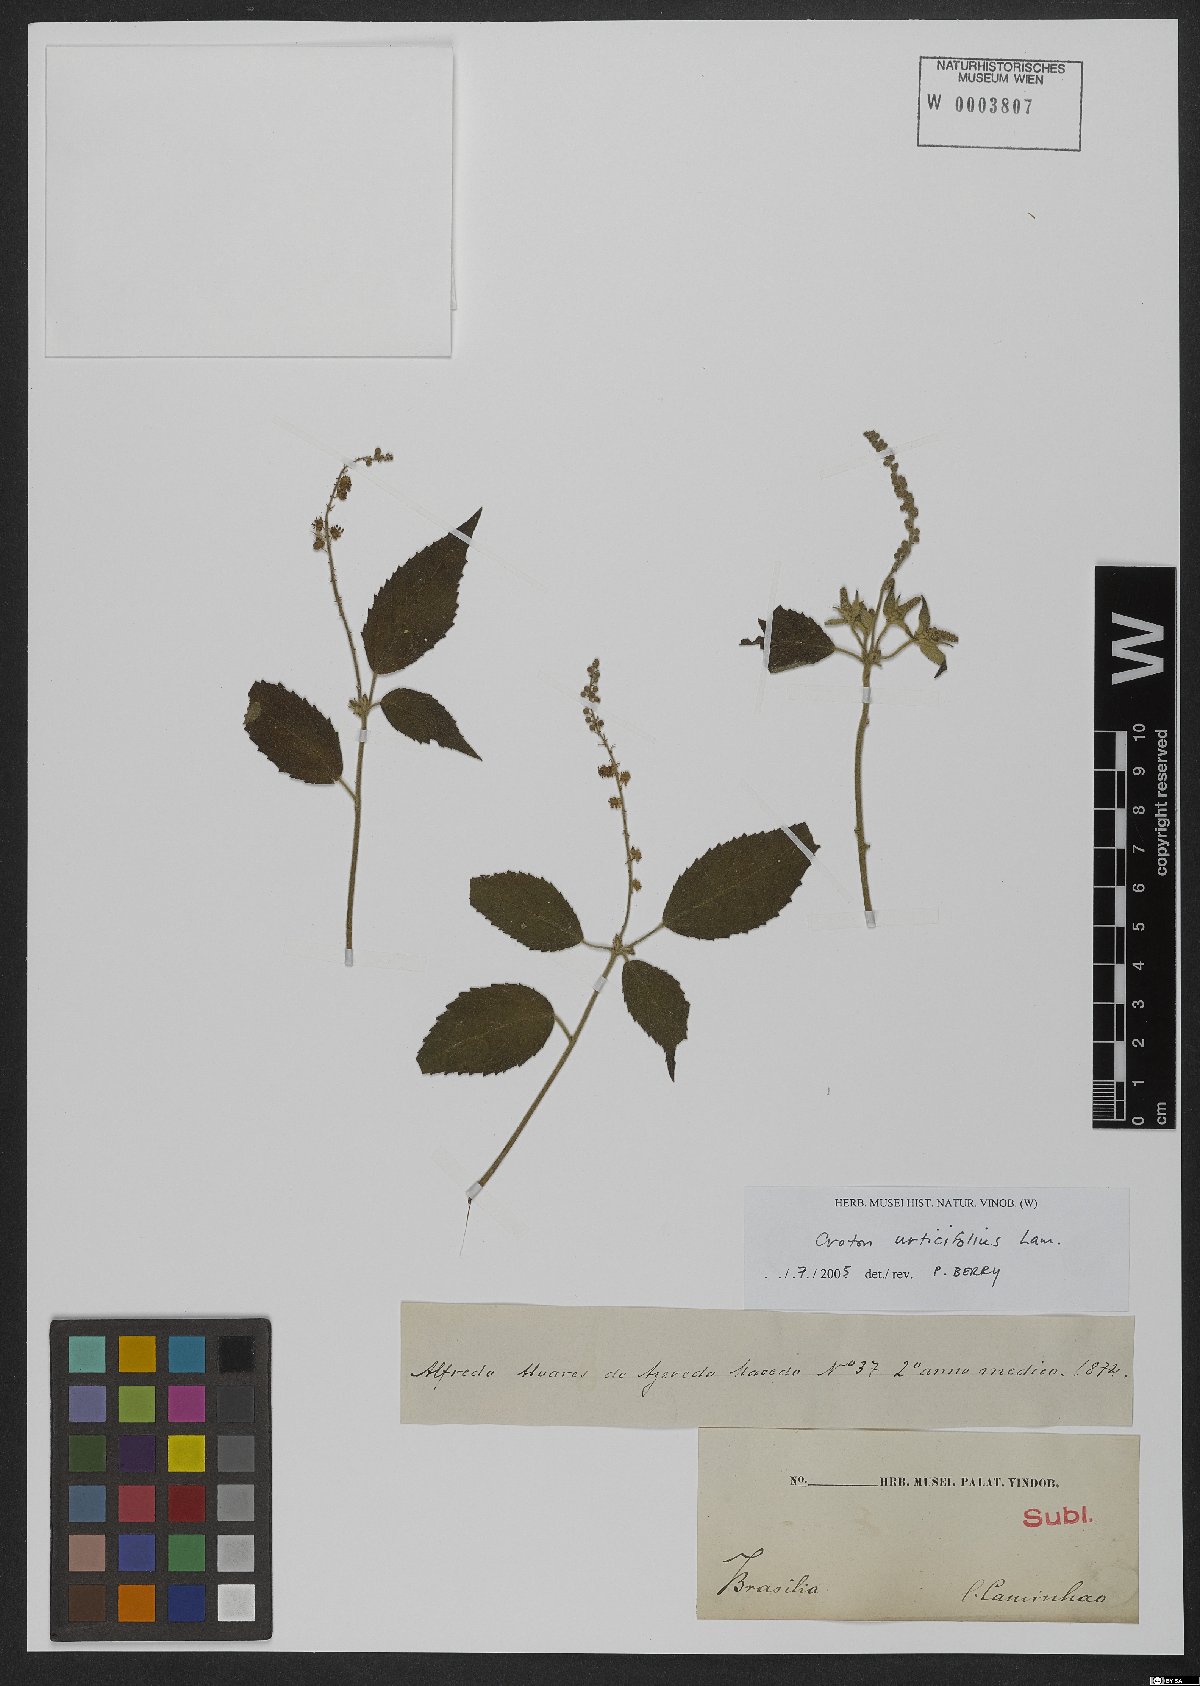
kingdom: Plantae
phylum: Tracheophyta
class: Magnoliopsida
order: Malpighiales
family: Euphorbiaceae
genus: Croton
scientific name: Croton urticifolius
